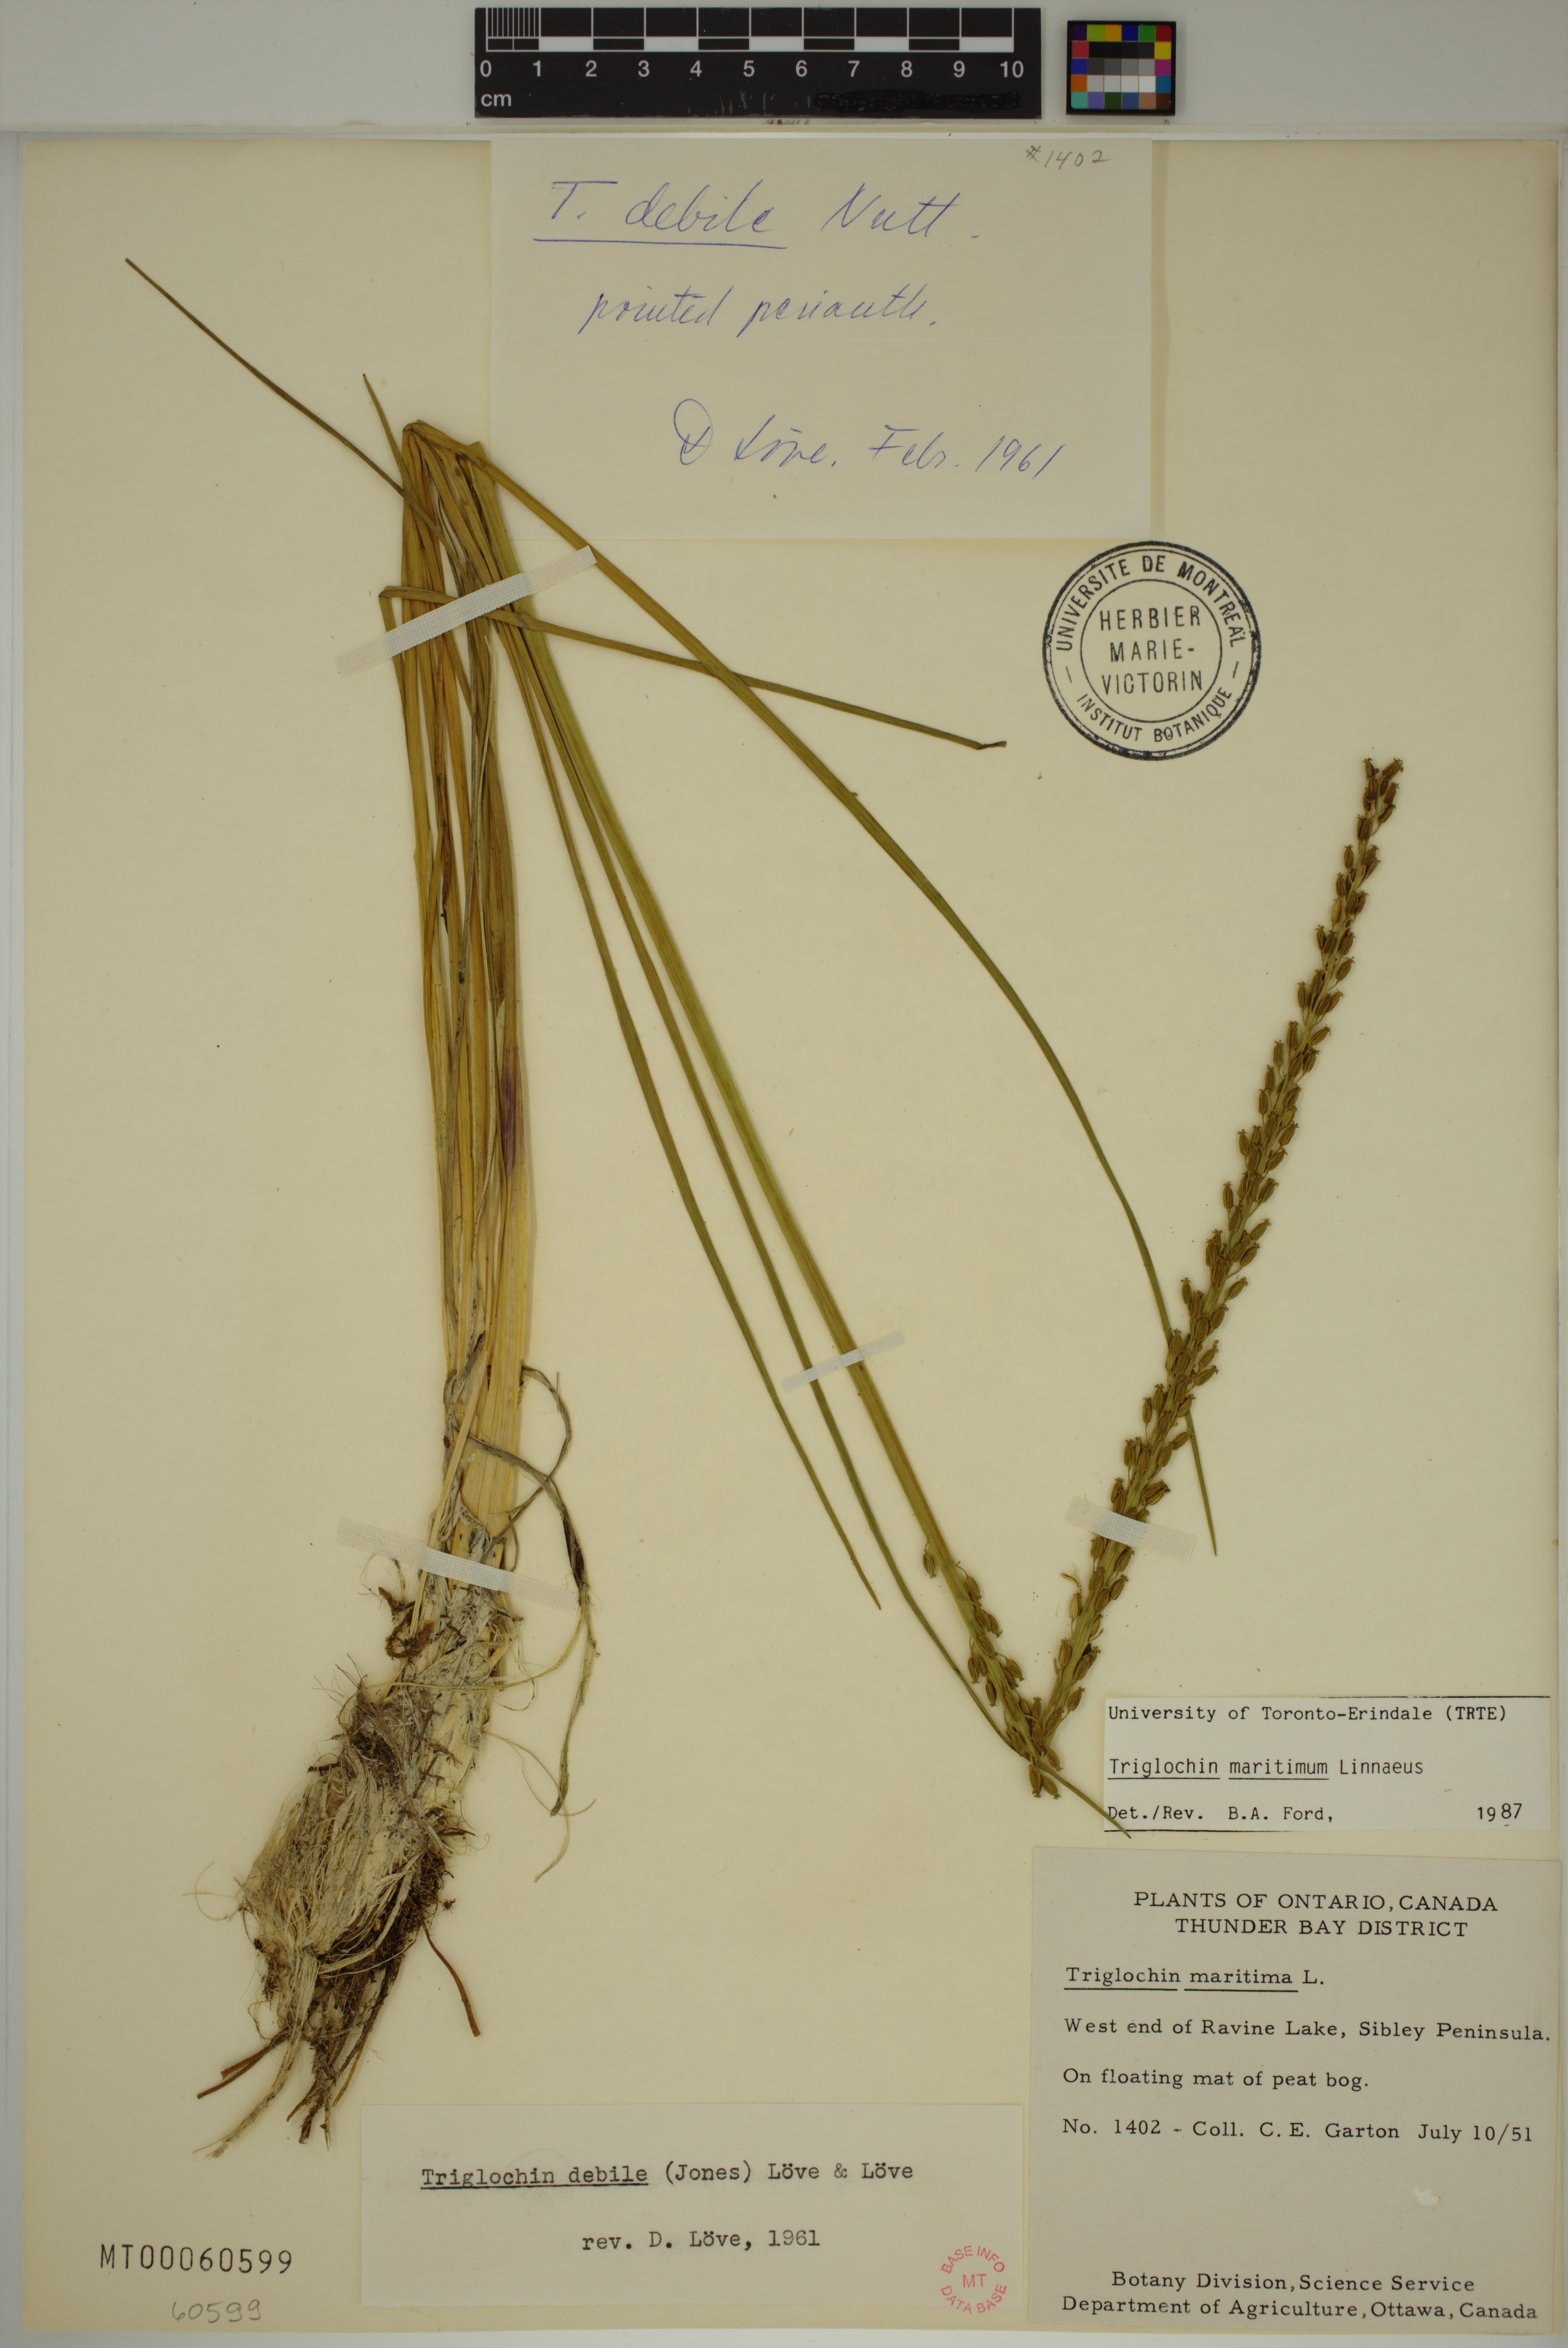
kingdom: Plantae
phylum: Tracheophyta
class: Liliopsida
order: Alismatales
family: Juncaginaceae
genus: Triglochin
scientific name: Triglochin maritima
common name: Sea arrowgrass
